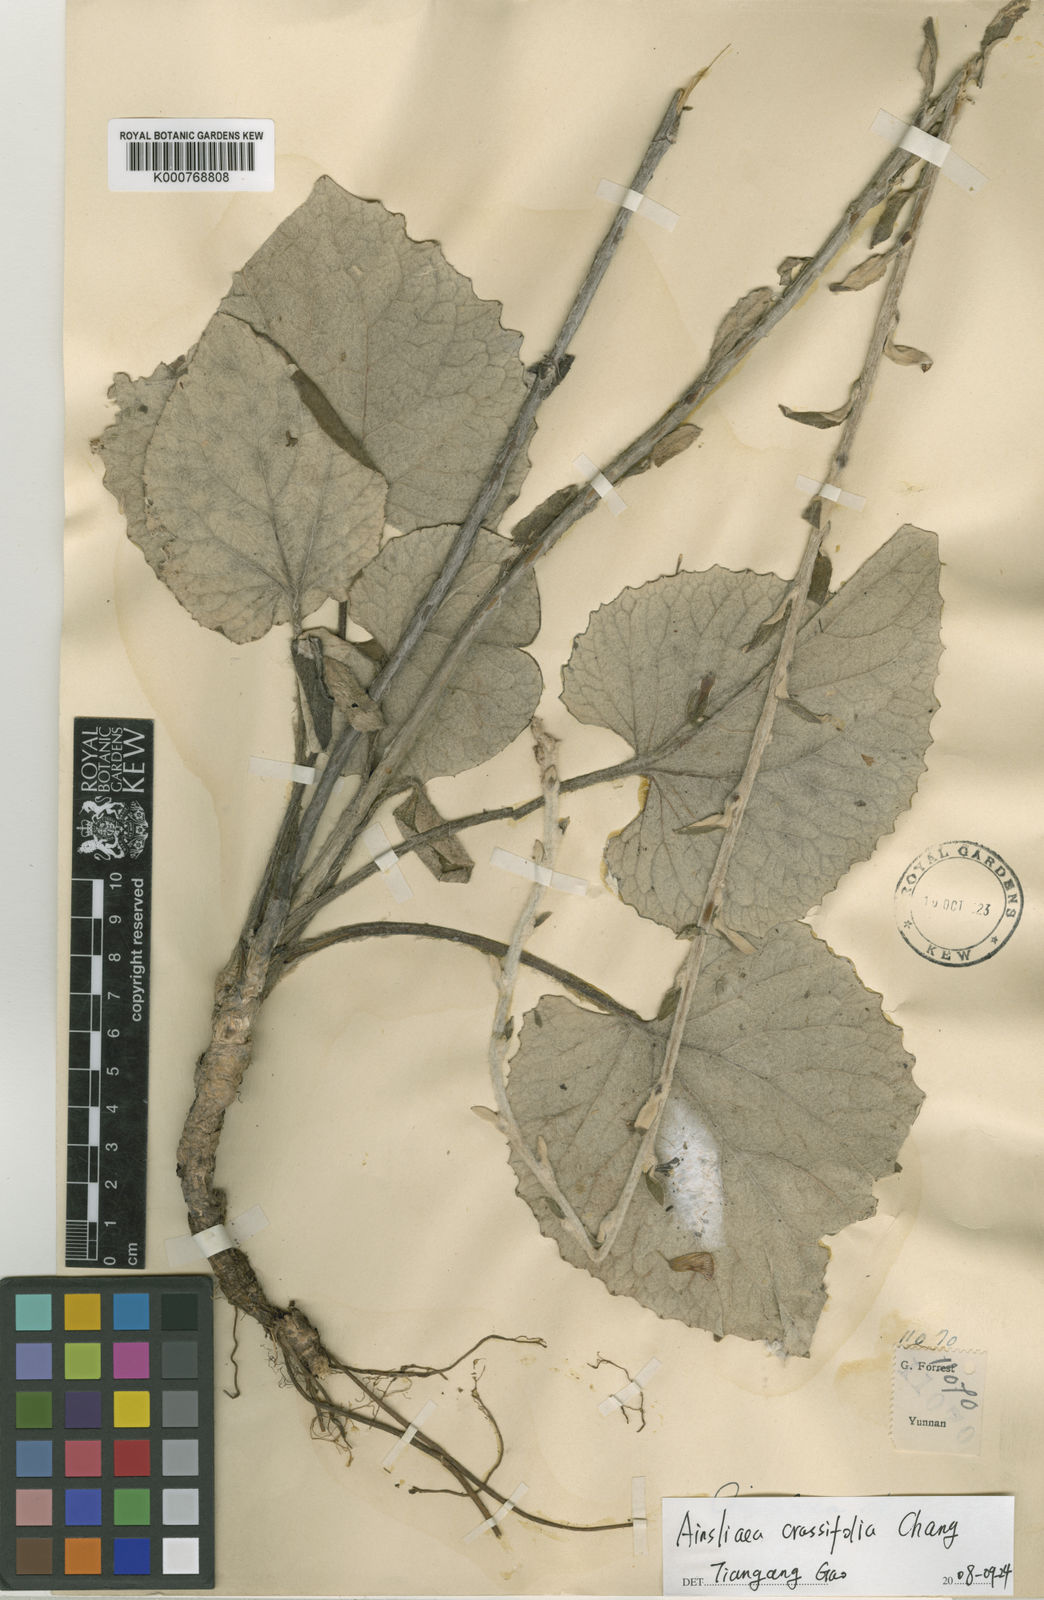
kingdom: Plantae
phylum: Tracheophyta
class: Magnoliopsida
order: Asterales
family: Asteraceae
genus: Ainsliaea
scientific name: Ainsliaea crassifolia
